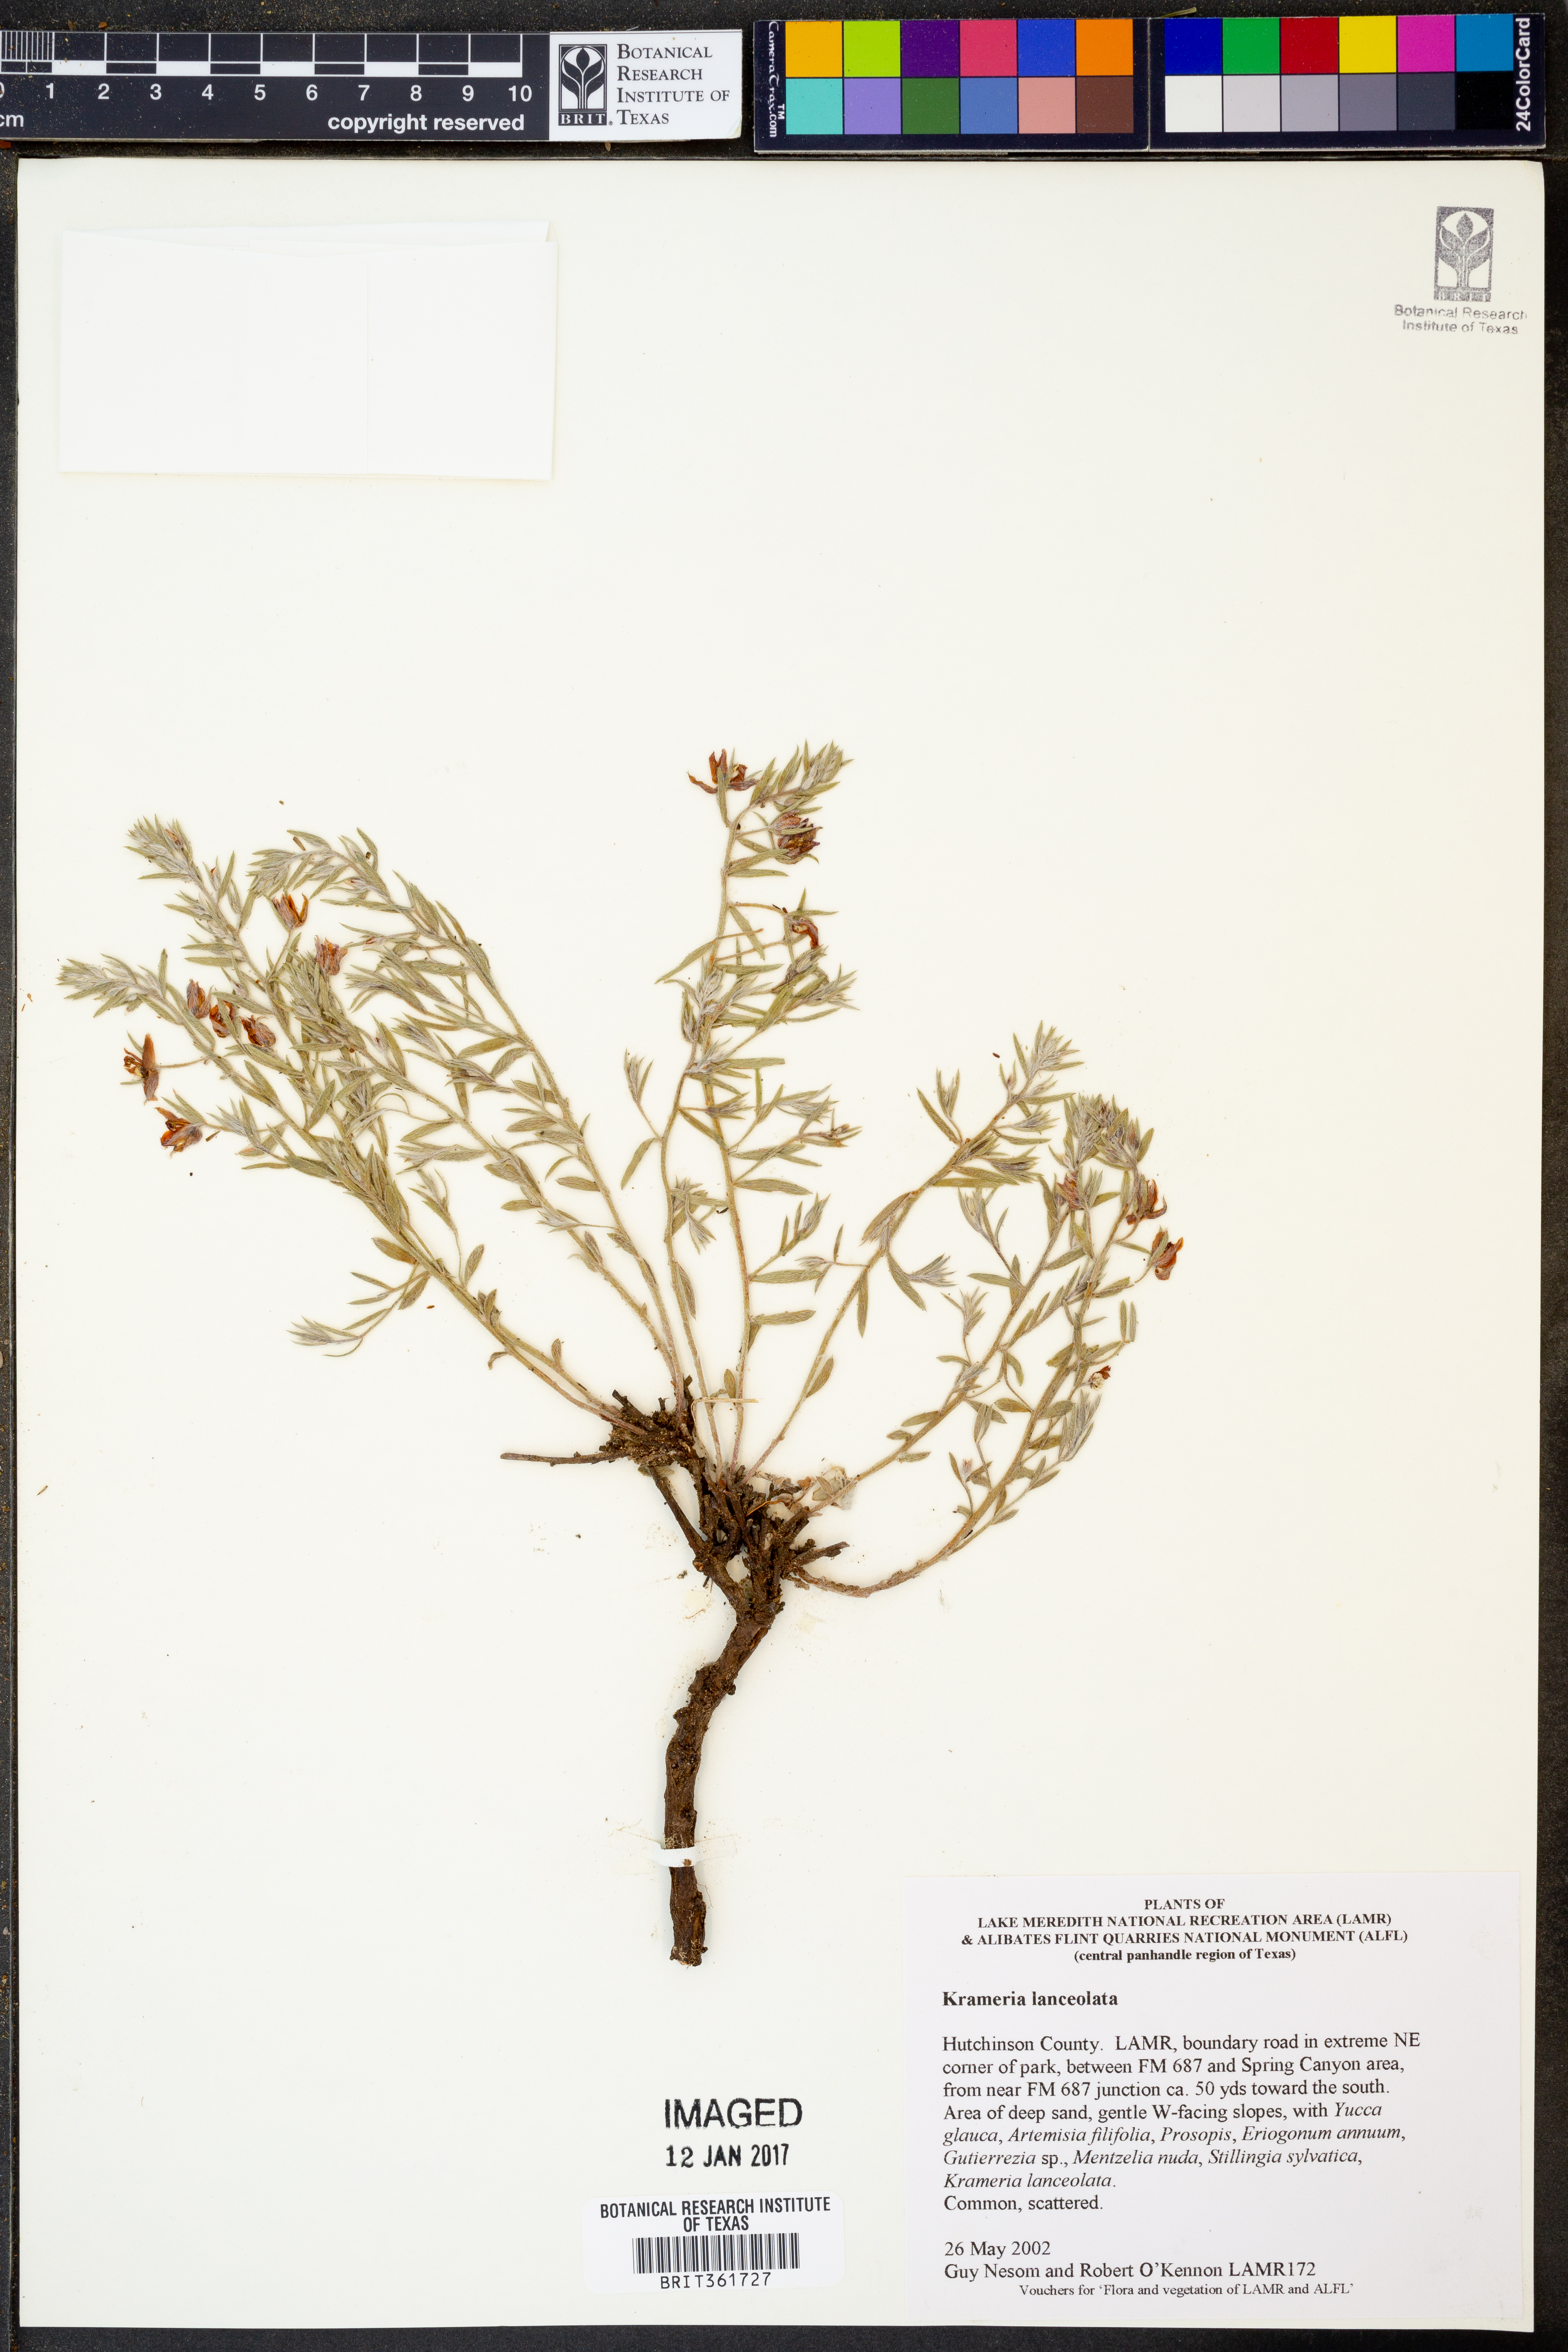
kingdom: Plantae
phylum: Tracheophyta
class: Magnoliopsida
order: Zygophyllales
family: Krameriaceae
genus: Krameria
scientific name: Krameria lanceolata
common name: Ratany
